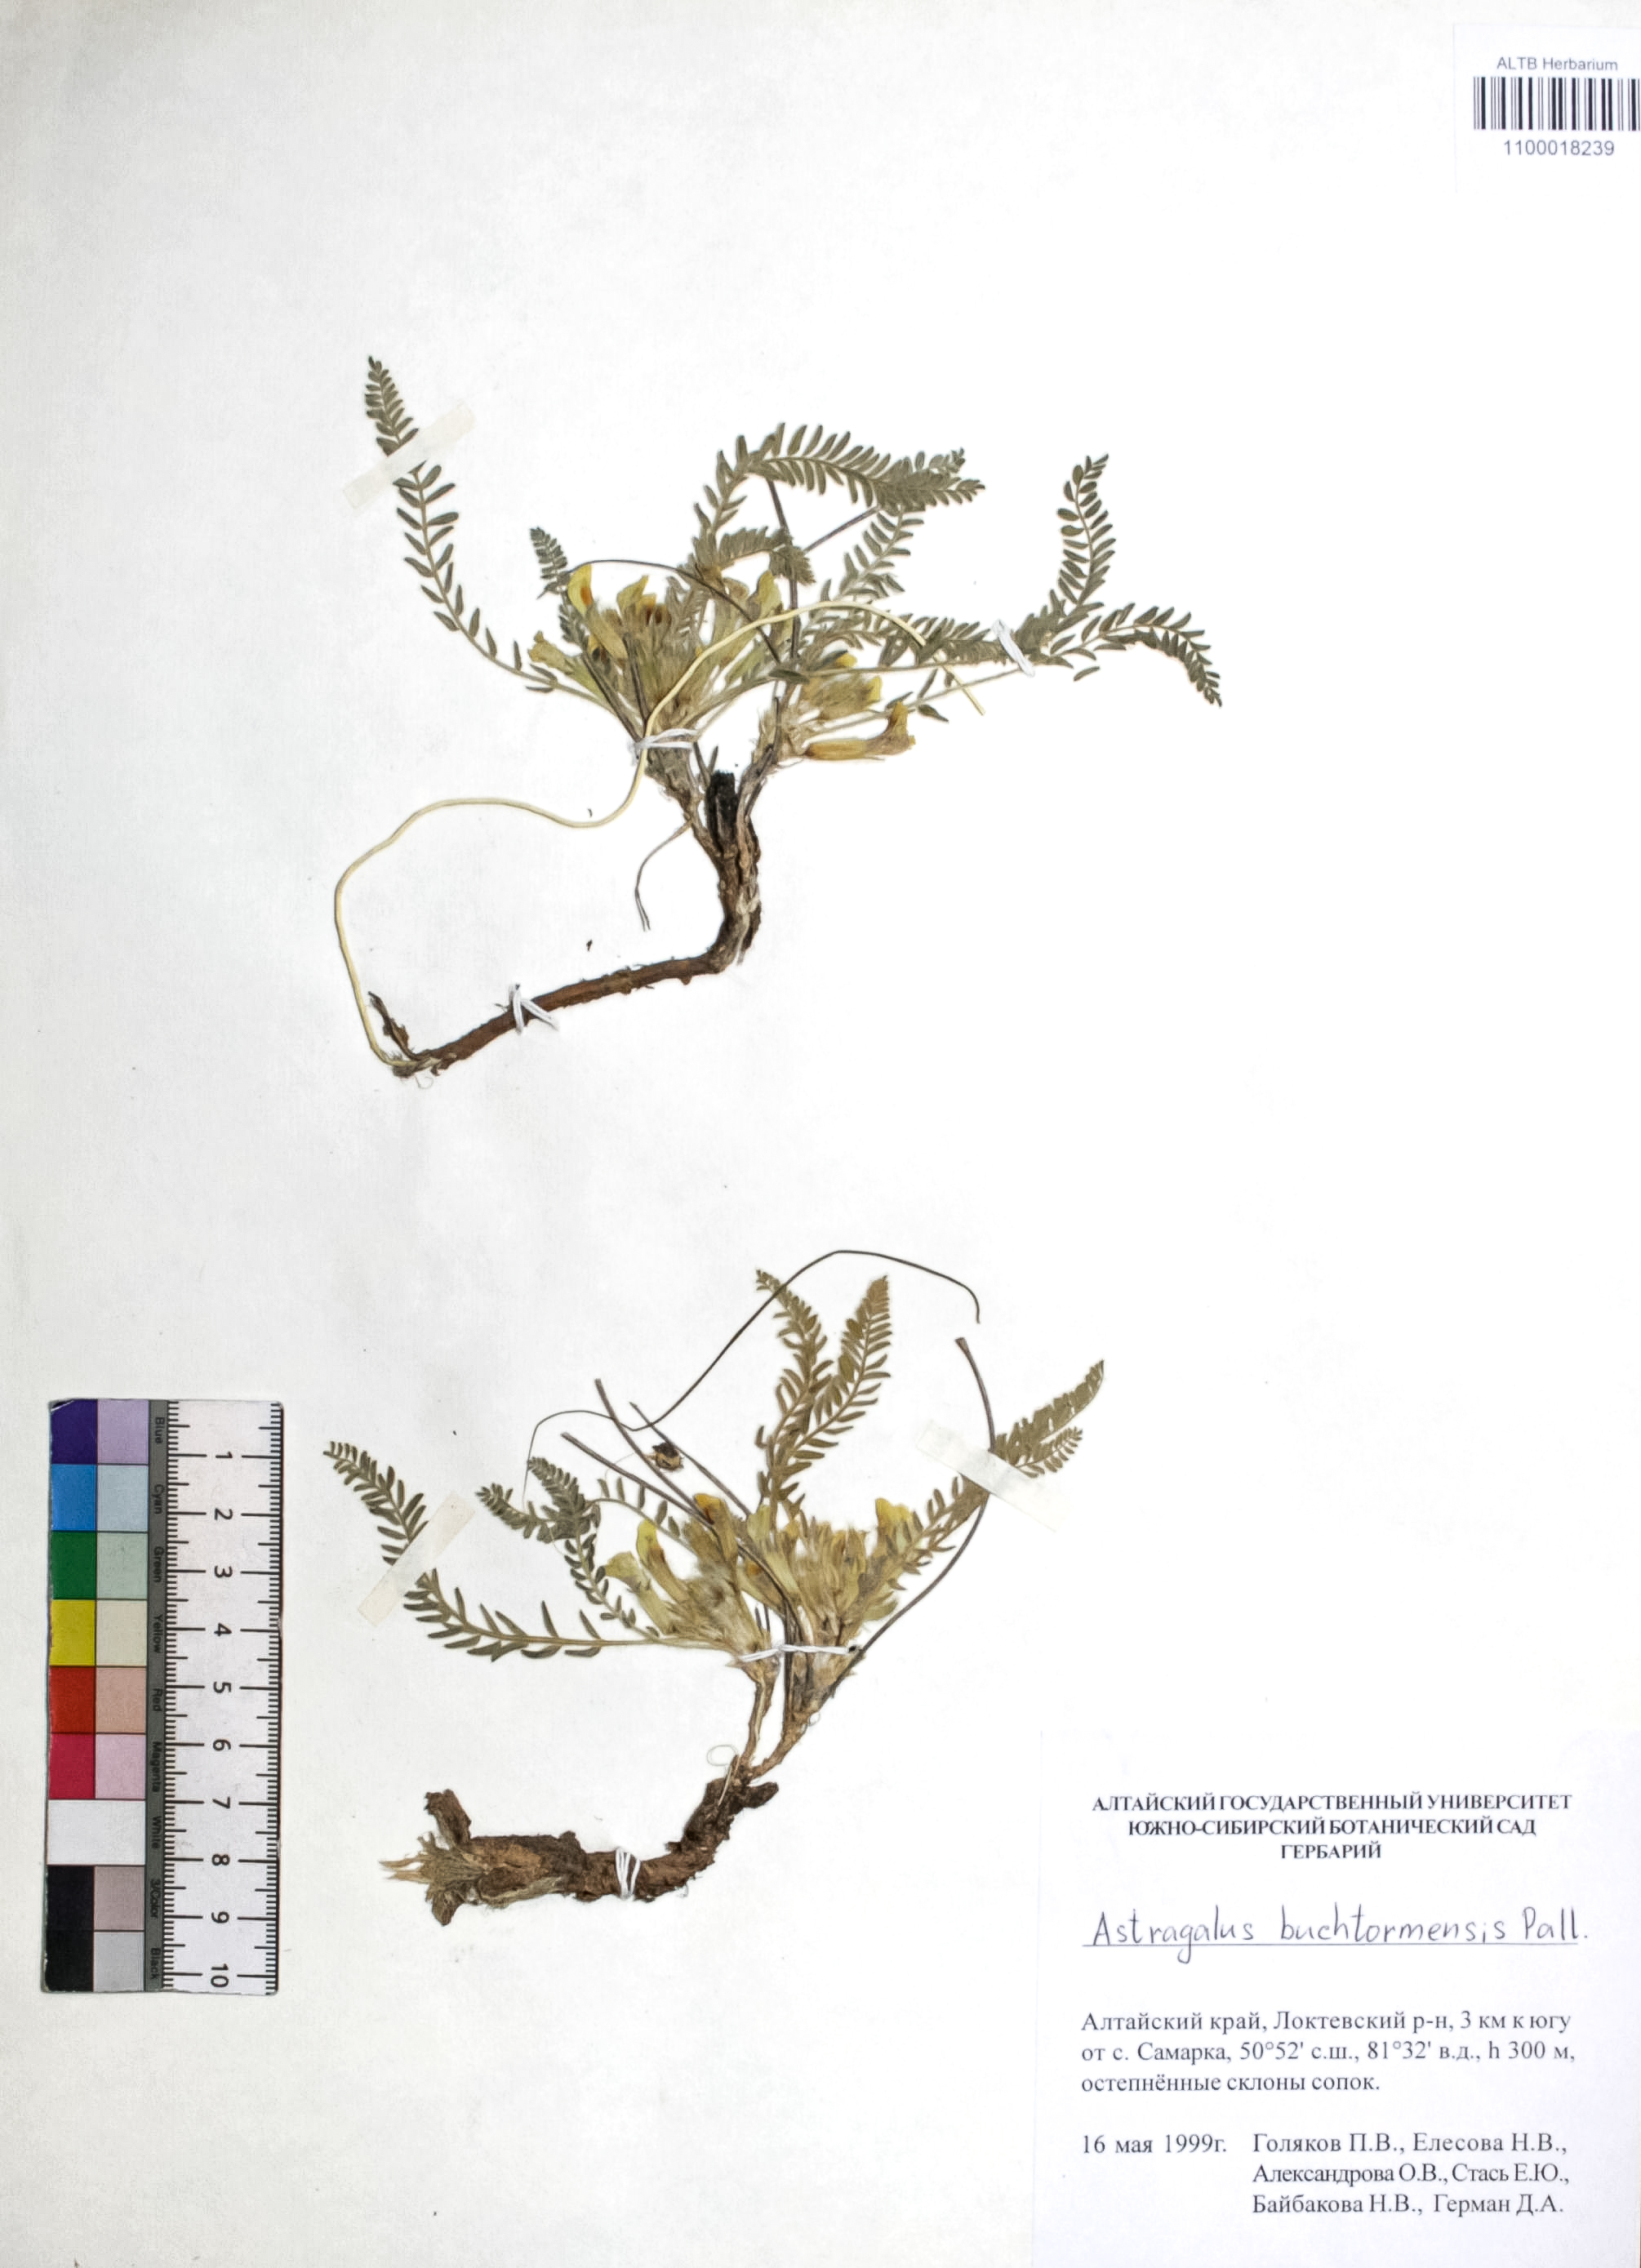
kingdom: Plantae
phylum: Tracheophyta
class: Magnoliopsida
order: Fabales
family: Fabaceae
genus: Astragalus
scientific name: Astragalus buchtormensis
